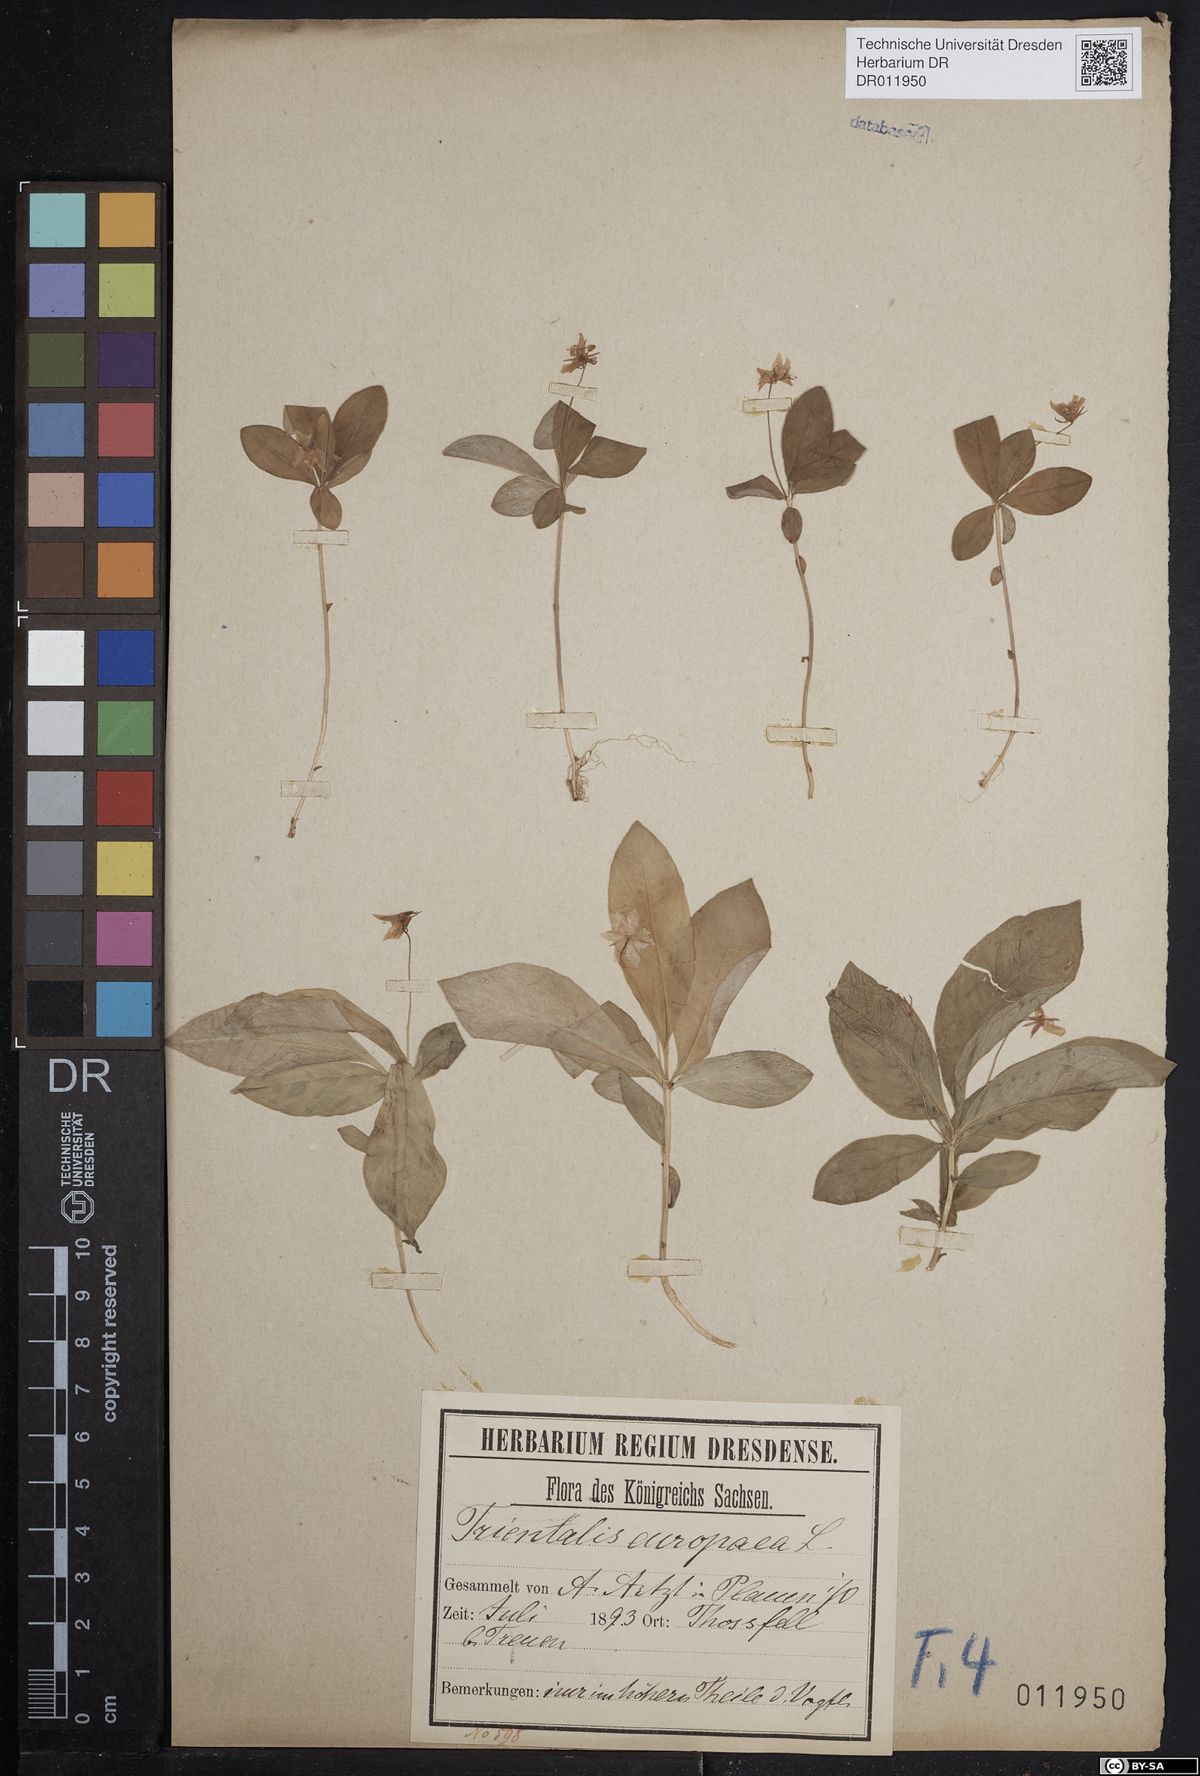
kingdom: Plantae
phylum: Tracheophyta
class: Magnoliopsida
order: Ericales
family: Primulaceae
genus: Lysimachia
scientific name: Lysimachia europaea
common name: Arctic starflower
